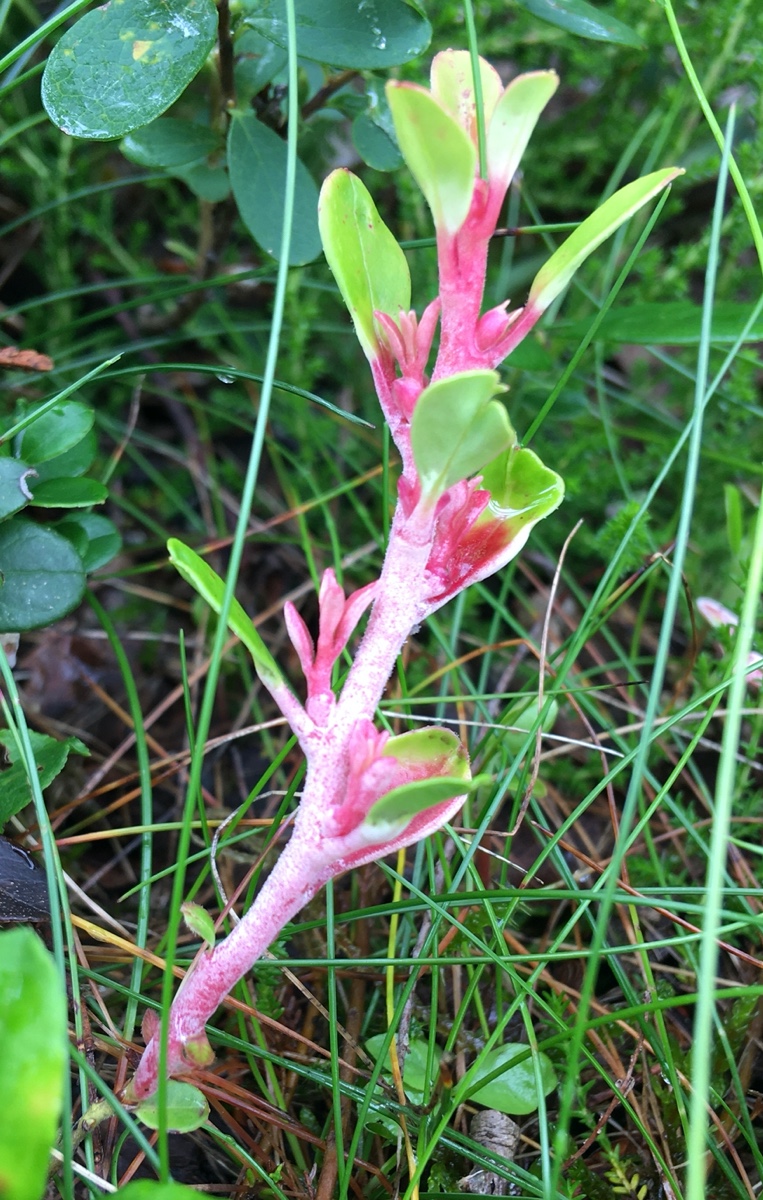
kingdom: Fungi
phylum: Basidiomycota
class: Exobasidiomycetes
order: Exobasidiales
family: Exobasidiaceae
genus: Exobasidium
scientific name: Exobasidium vaccinii
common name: tyttebærblad-bøllesvamp
